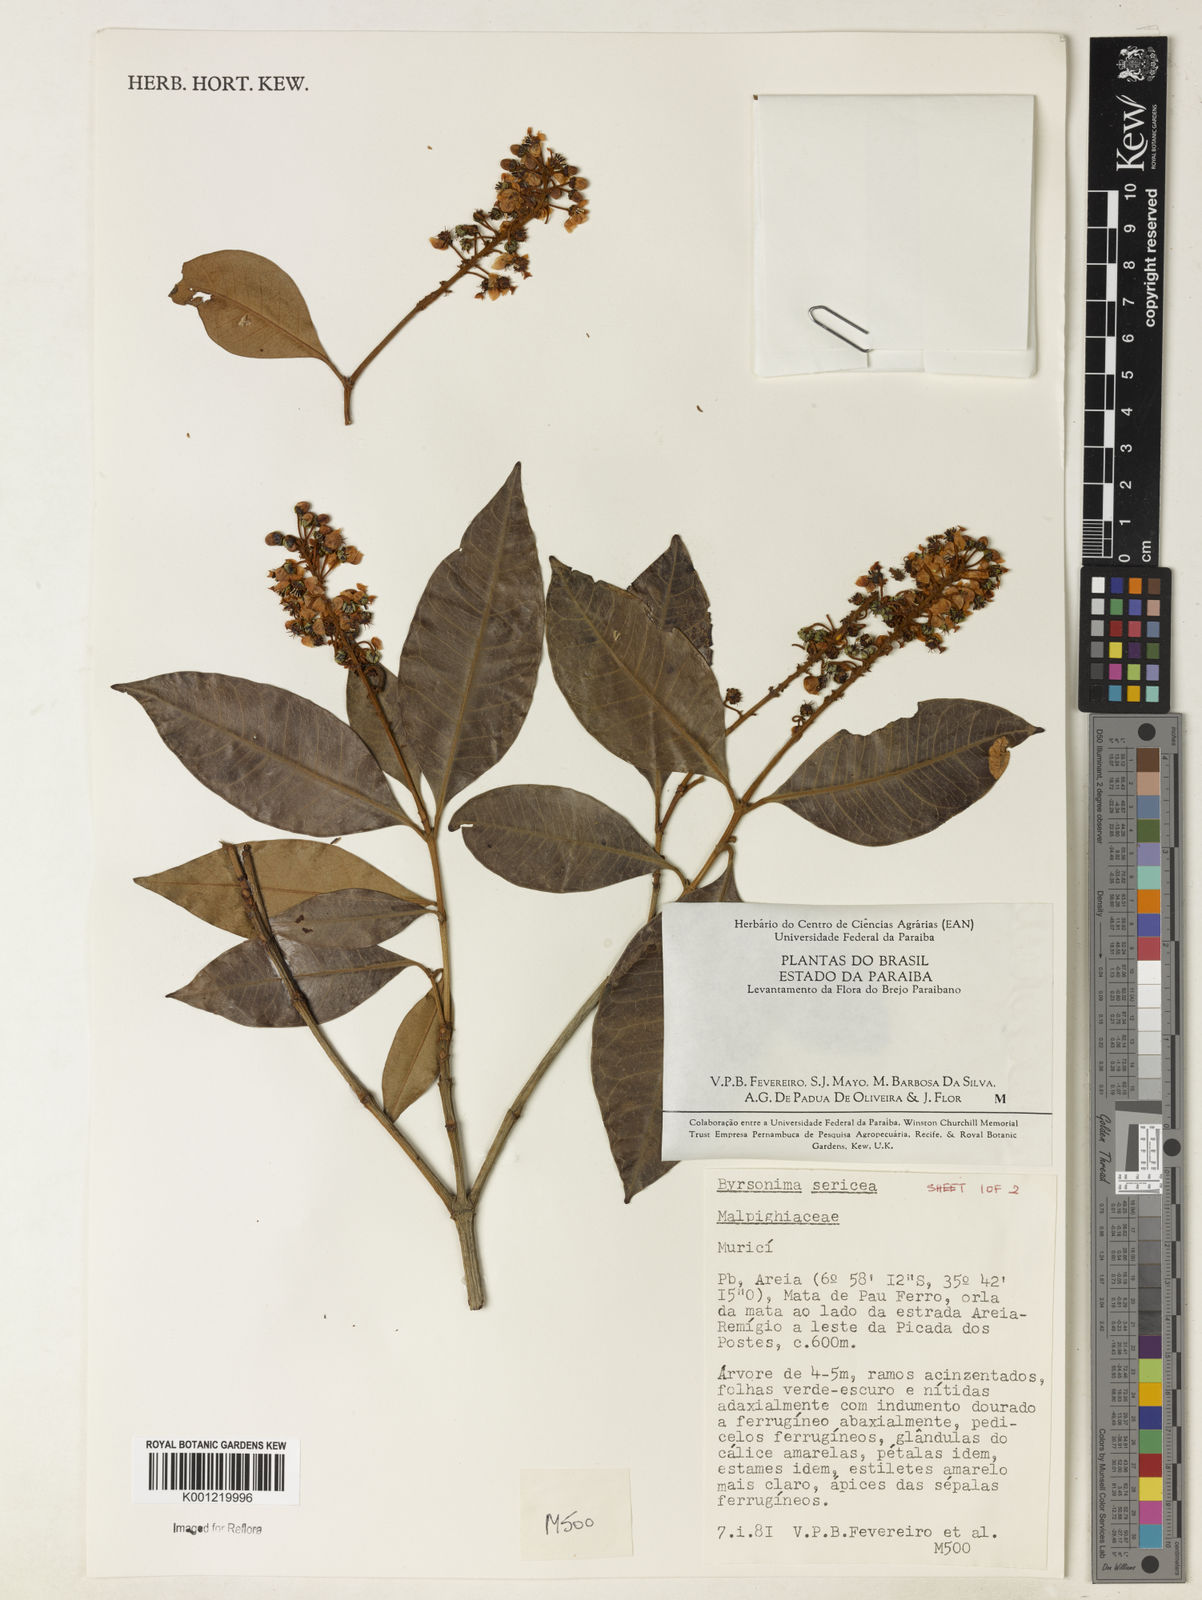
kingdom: Plantae
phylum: Tracheophyta
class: Magnoliopsida
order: Malpighiales
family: Malpighiaceae
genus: Byrsonima
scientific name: Byrsonima sericea
